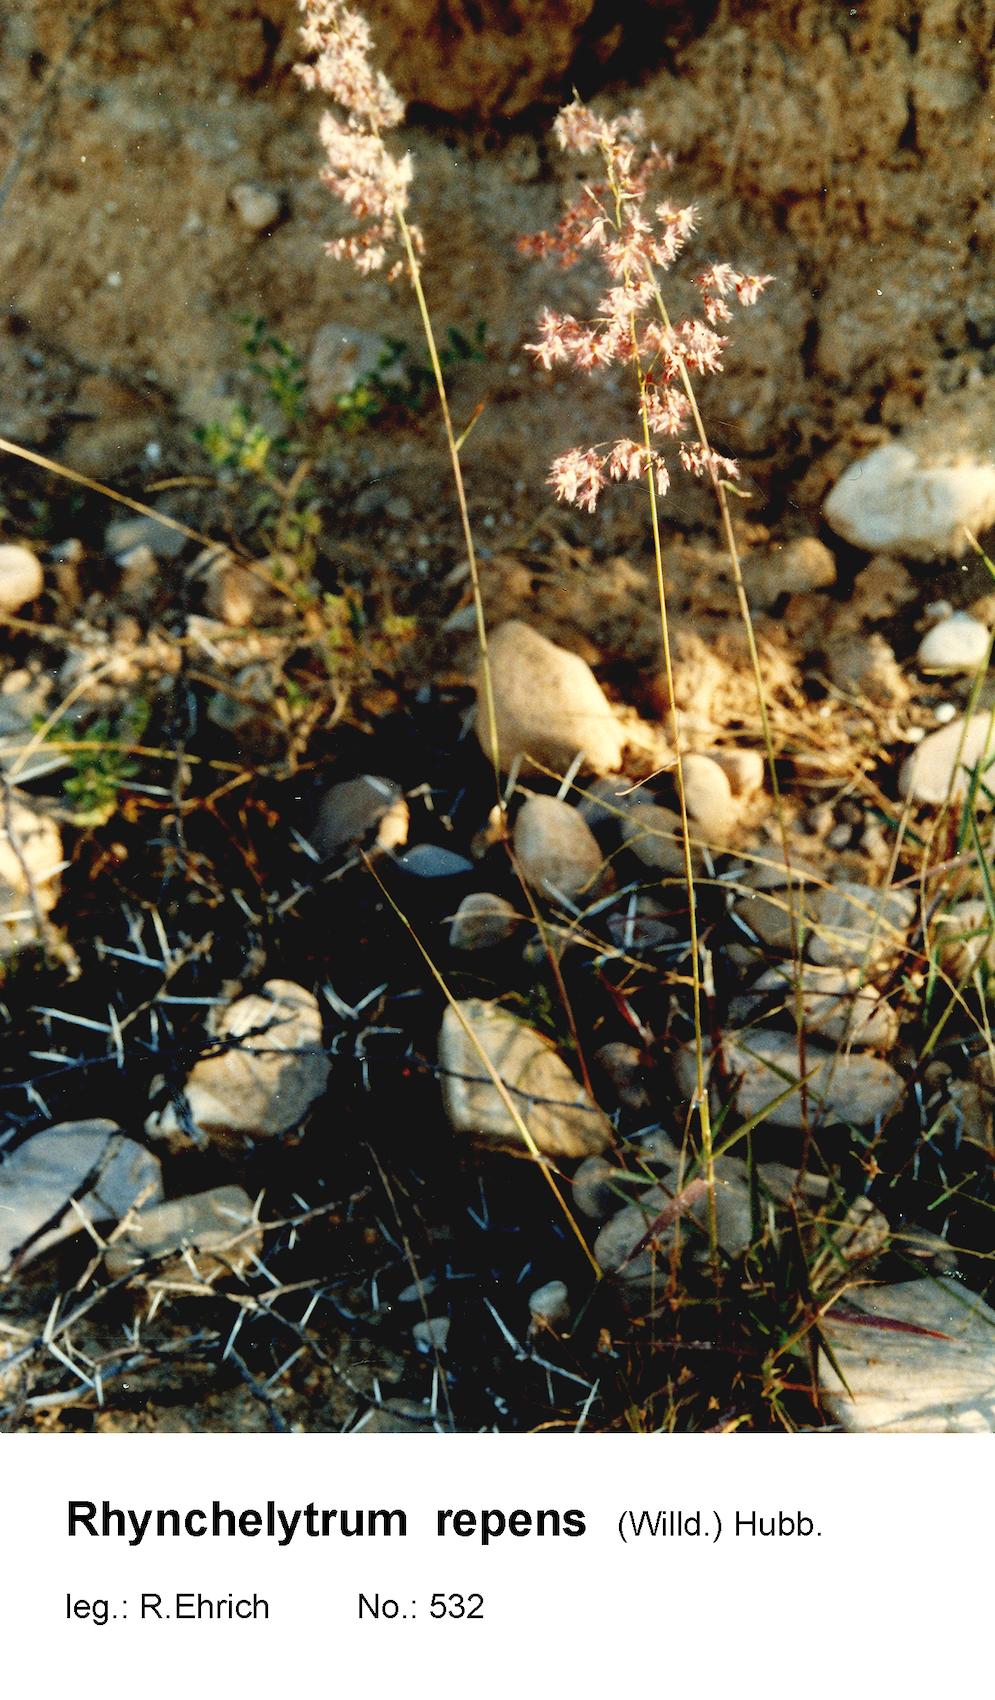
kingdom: Plantae
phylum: Tracheophyta
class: Liliopsida
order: Poales
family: Poaceae
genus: Melinis
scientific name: Melinis repens
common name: Rose natal grass
